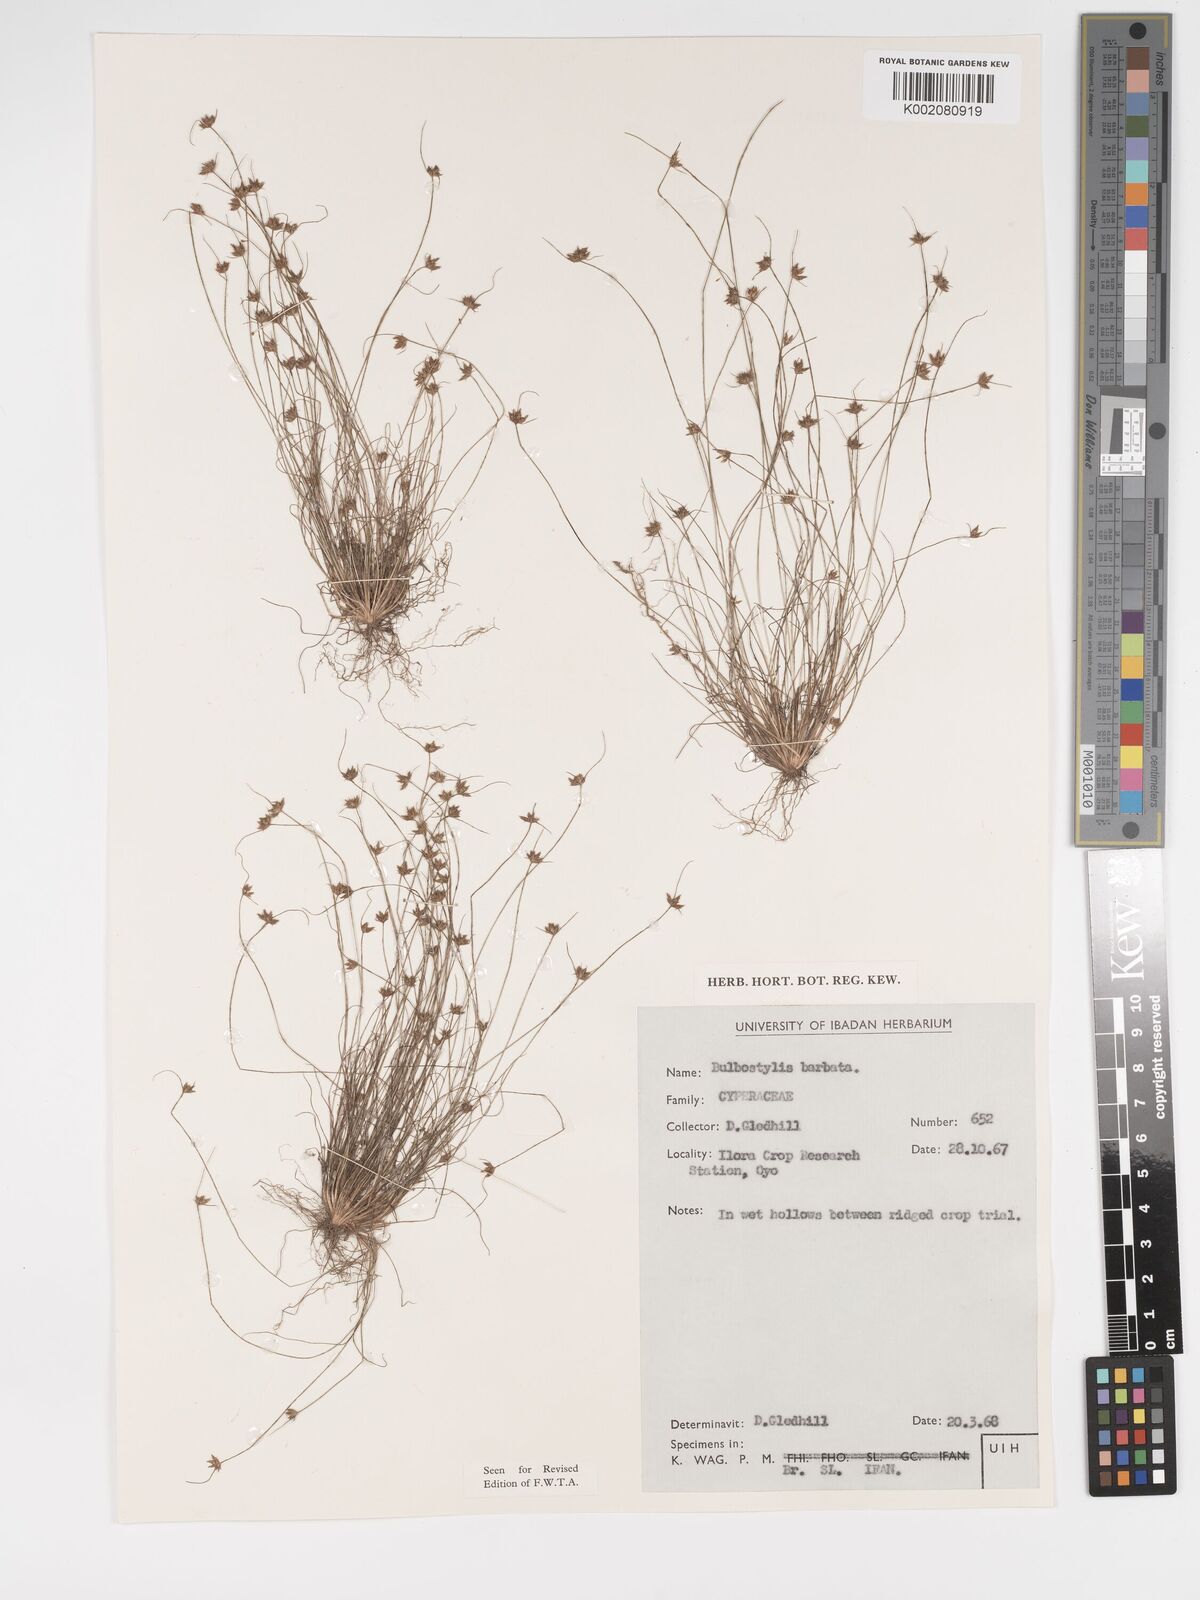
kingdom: Plantae
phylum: Tracheophyta
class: Liliopsida
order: Poales
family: Cyperaceae
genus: Bulbostylis
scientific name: Bulbostylis barbata
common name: Watergrass
